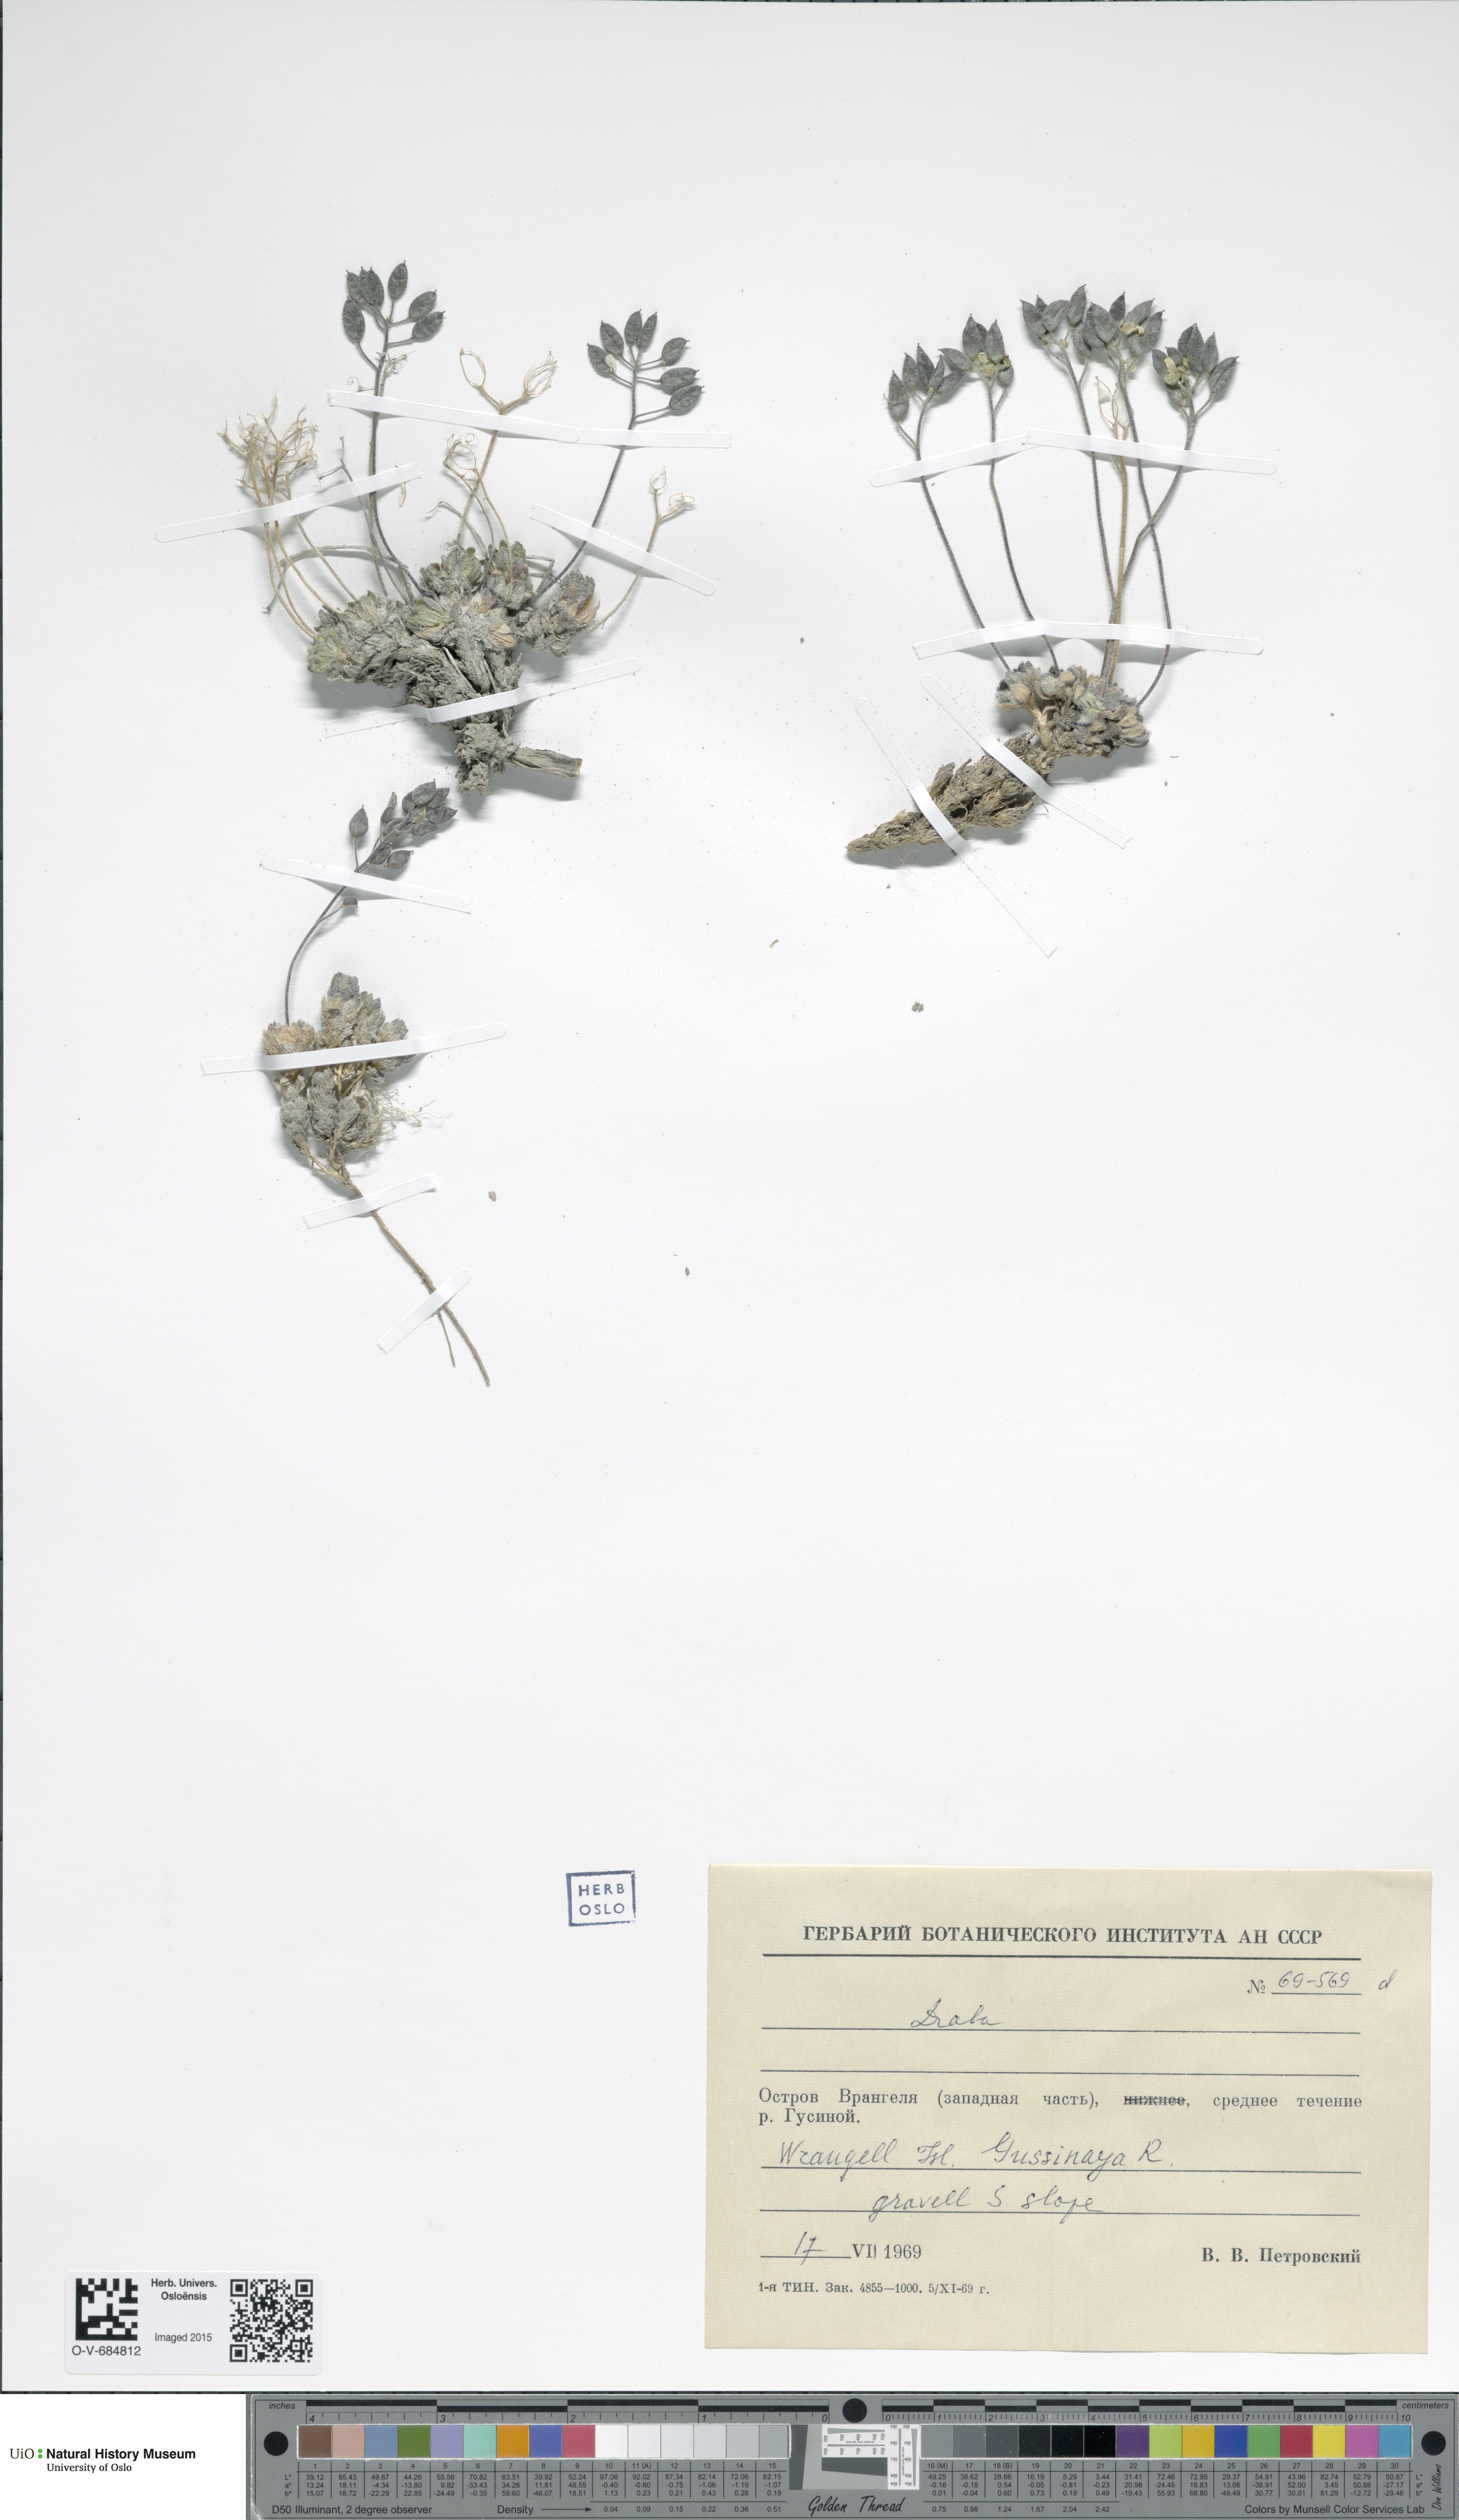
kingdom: Plantae
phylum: Tracheophyta
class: Magnoliopsida
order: Brassicales
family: Brassicaceae
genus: Draba
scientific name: Draba
